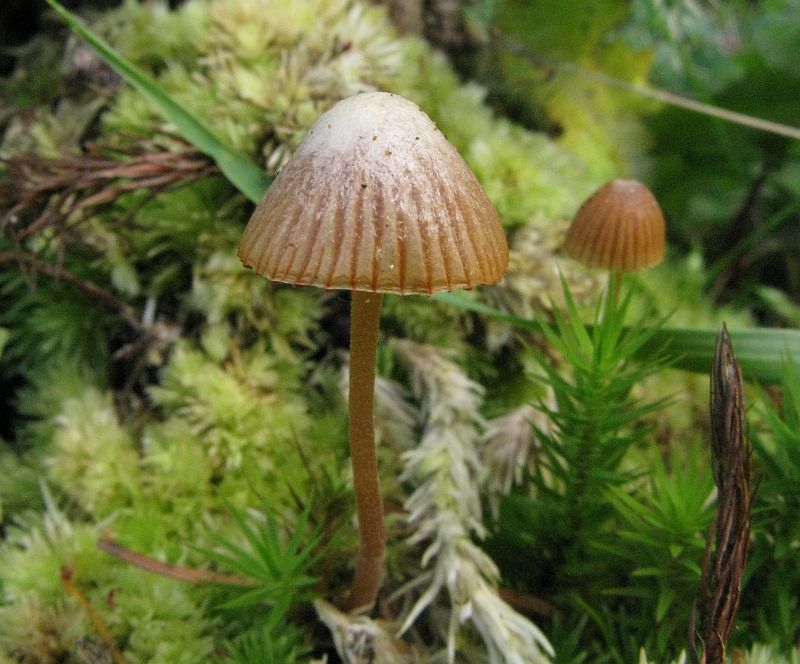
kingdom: Fungi
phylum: Basidiomycota
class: Agaricomycetes
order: Agaricales
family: Hymenogastraceae
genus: Galerina
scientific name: Galerina atkinsoniana
